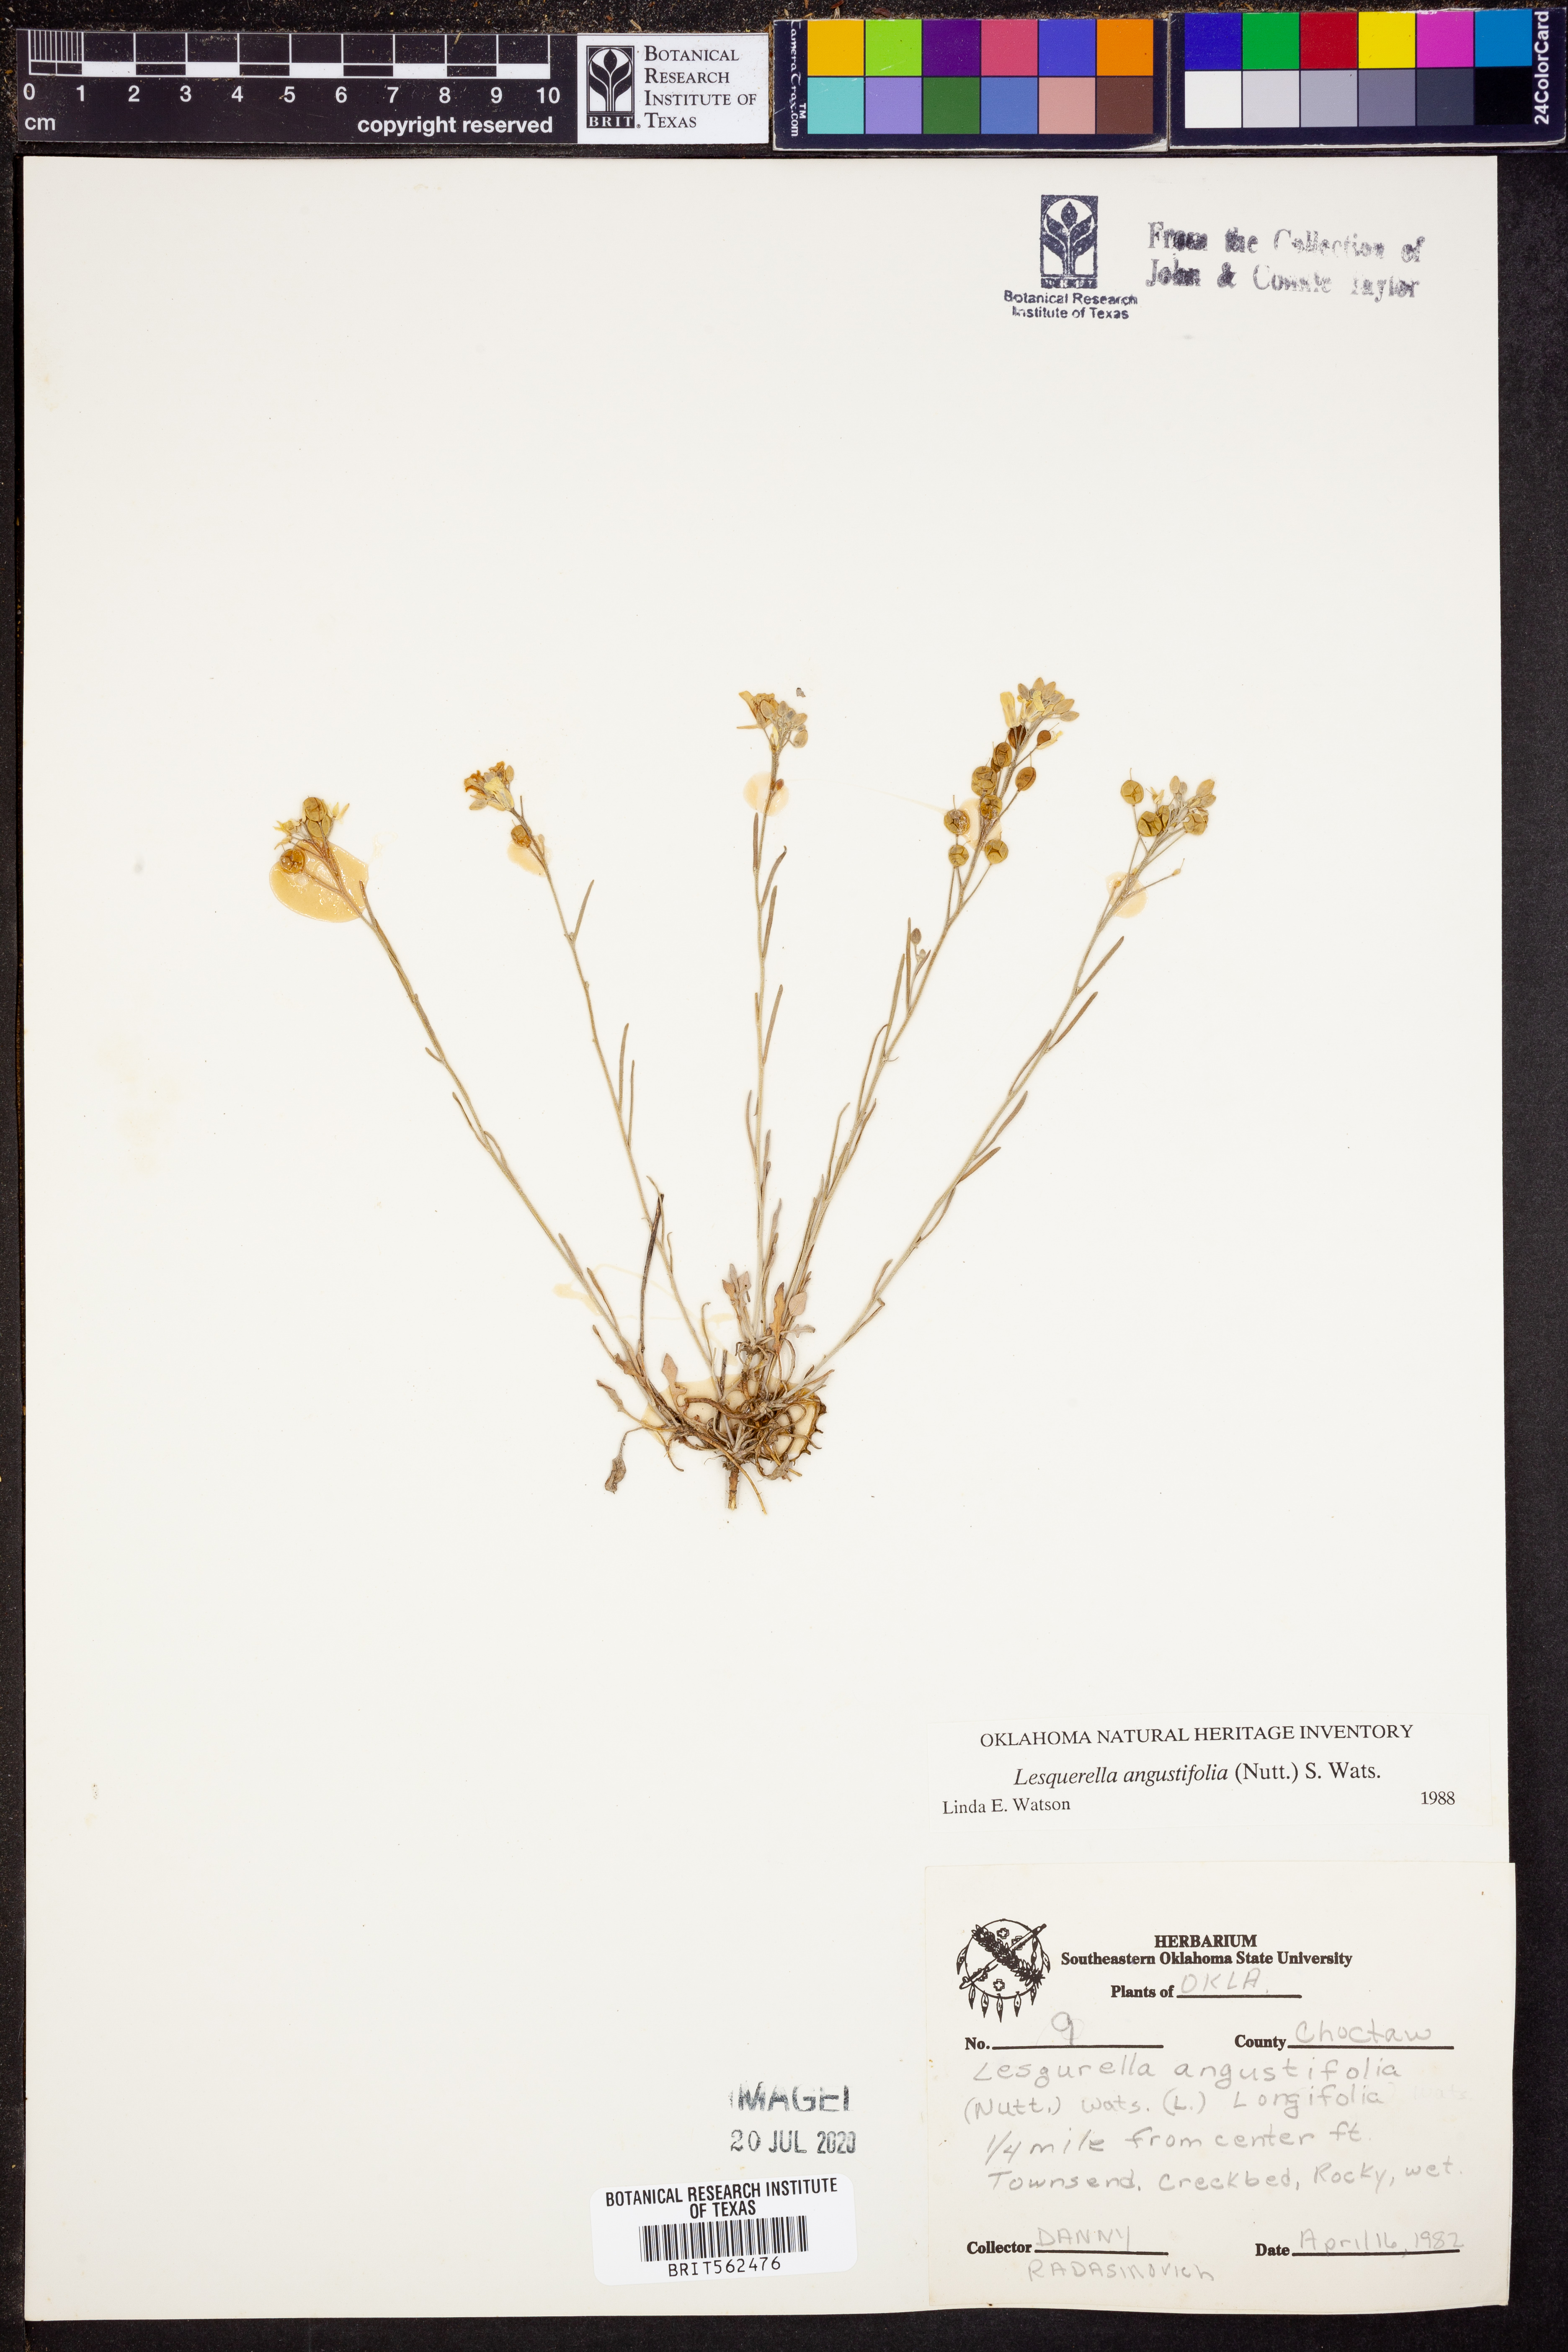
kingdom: Plantae
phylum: Tracheophyta
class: Magnoliopsida
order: Brassicales
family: Brassicaceae
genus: Physaria
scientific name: Physaria angustifolia
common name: Threadleaf bladderpod
